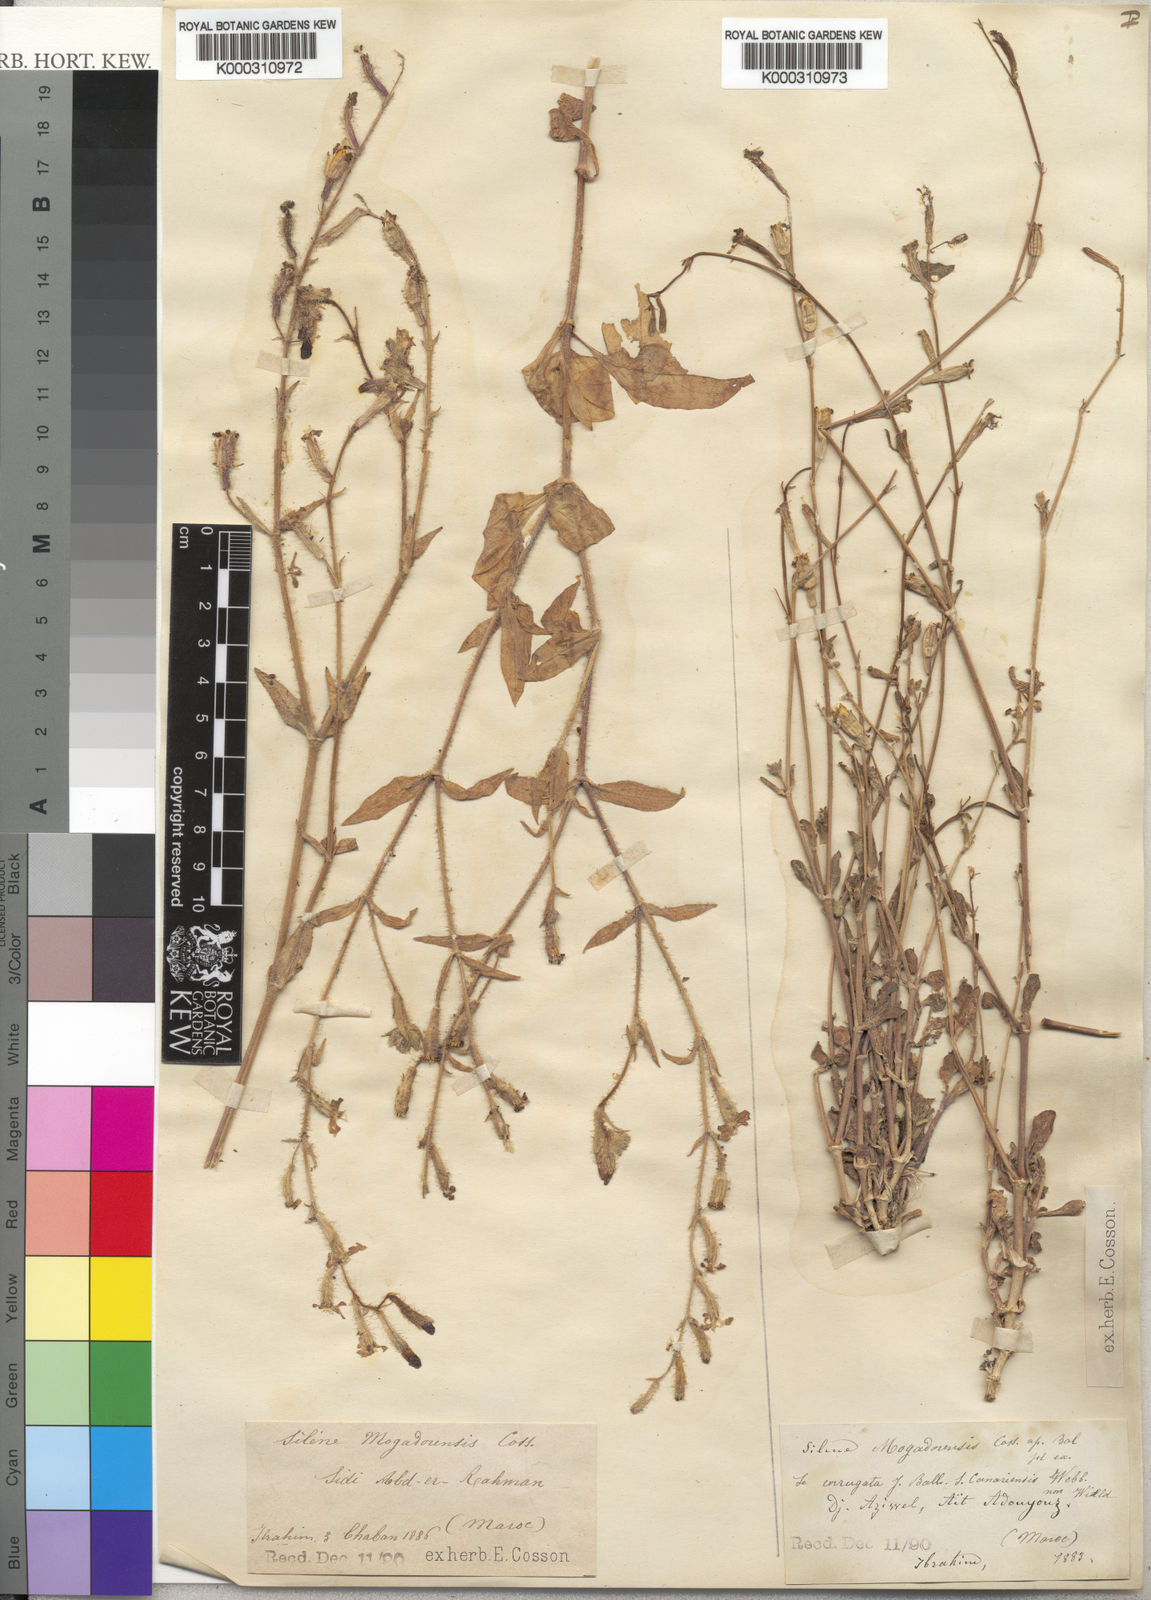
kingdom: Plantae
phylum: Tracheophyta
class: Magnoliopsida
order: Caryophyllales
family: Caryophyllaceae
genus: Silene
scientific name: Silene corrugata
